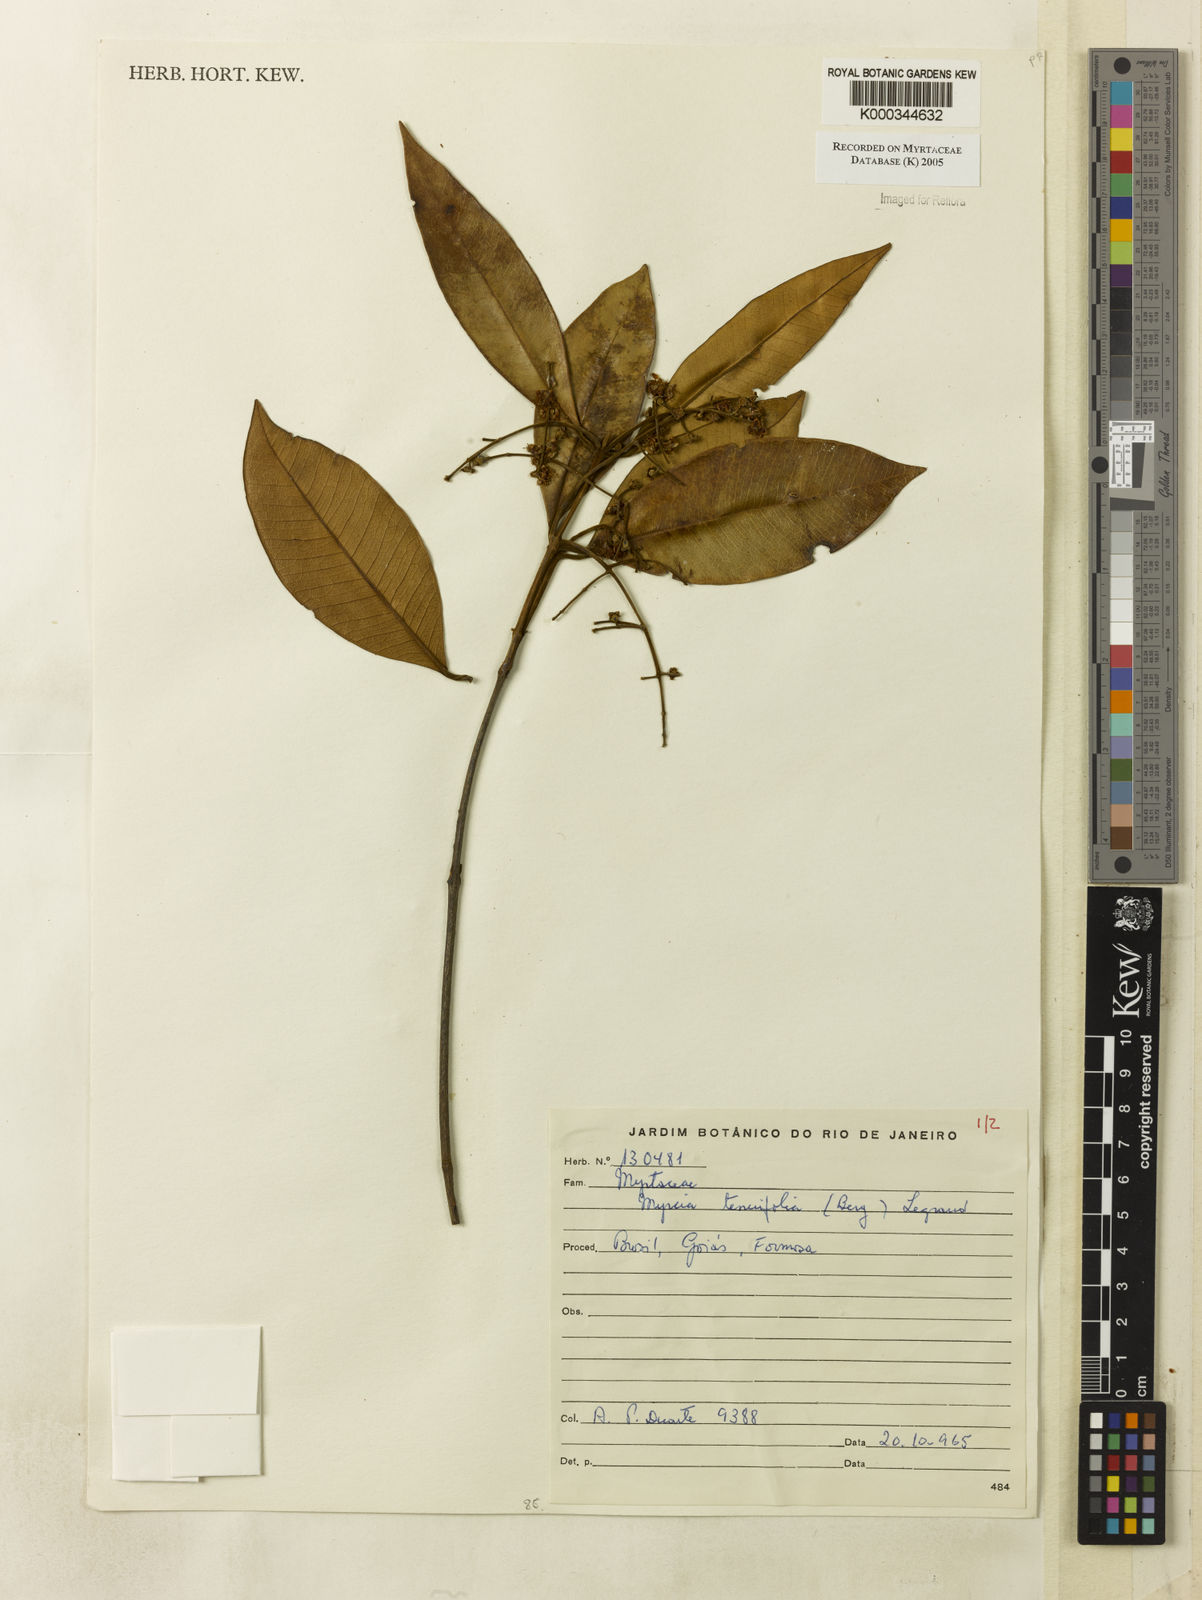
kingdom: Plantae
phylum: Tracheophyta
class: Magnoliopsida
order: Myrtales
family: Myrtaceae
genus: Myrcia
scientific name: Myrcia
